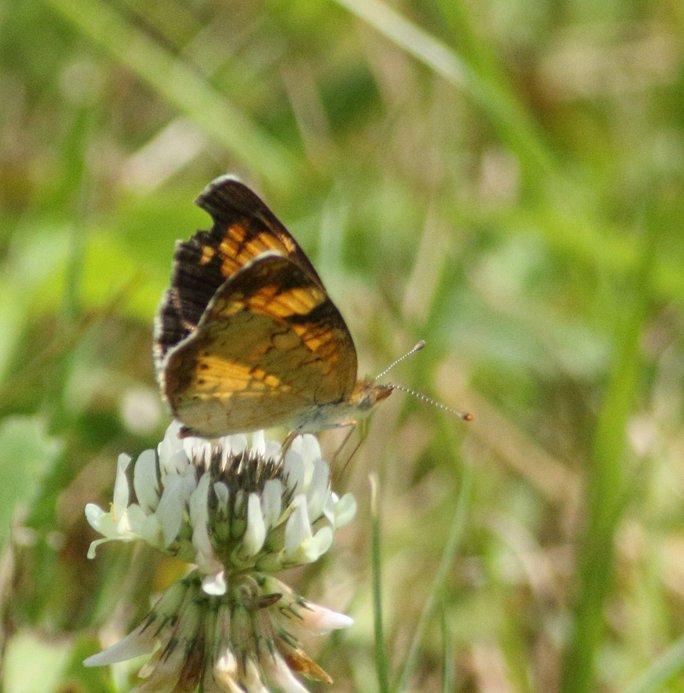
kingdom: Animalia
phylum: Arthropoda
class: Insecta
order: Lepidoptera
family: Nymphalidae
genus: Phyciodes
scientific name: Phyciodes tharos
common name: Pearl Crescent
